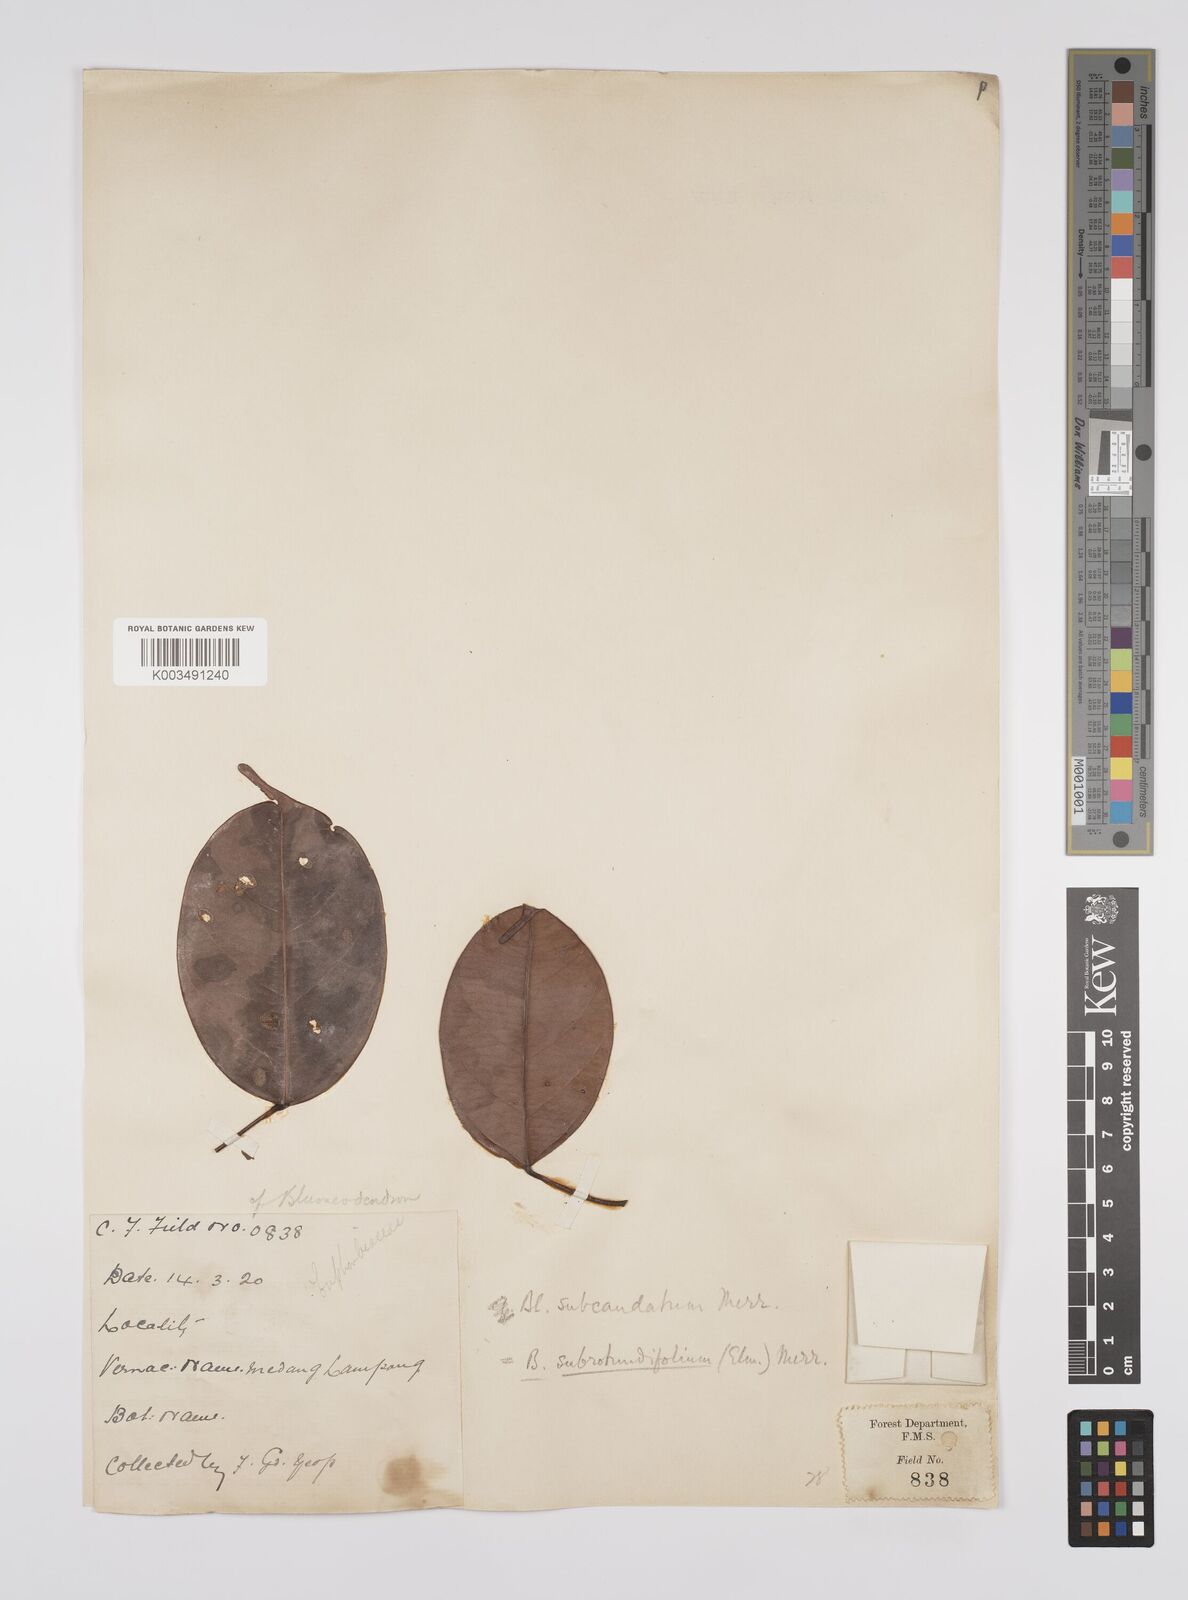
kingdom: Plantae
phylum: Tracheophyta
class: Magnoliopsida
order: Malpighiales
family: Euphorbiaceae
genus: Blumeodendron
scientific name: Blumeodendron subrotundifolium
